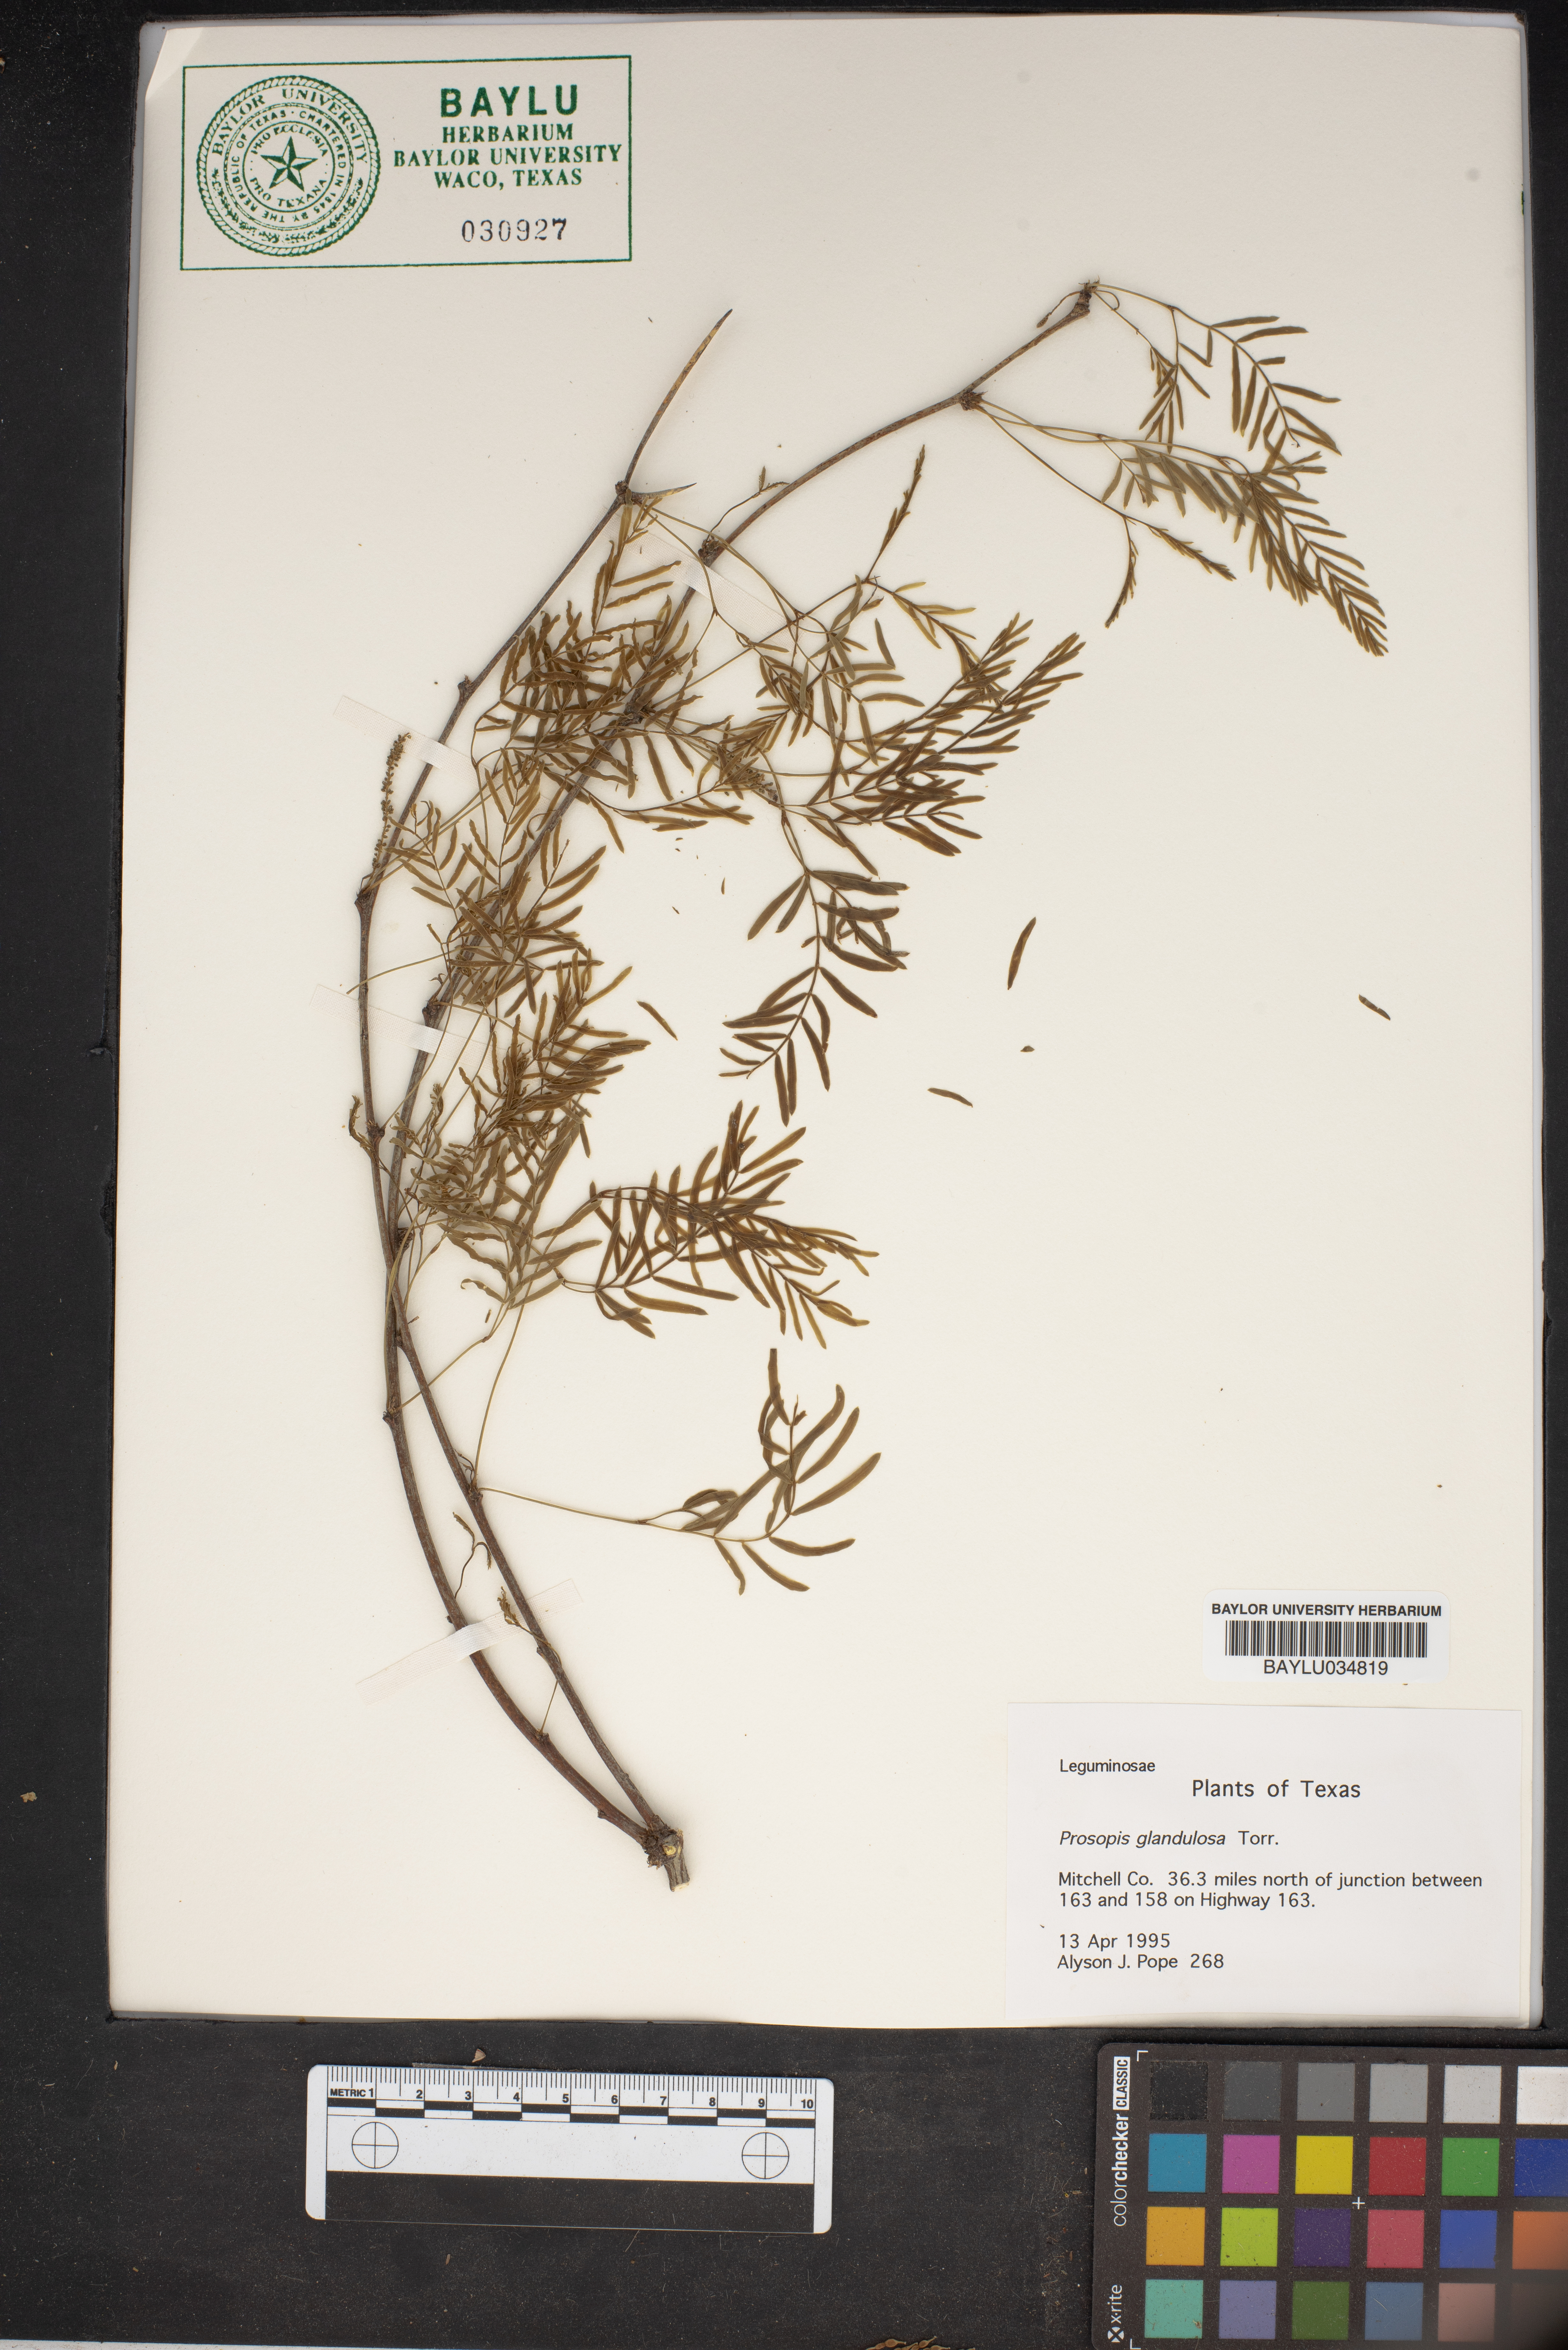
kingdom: Plantae
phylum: Tracheophyta
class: Magnoliopsida
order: Fabales
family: Fabaceae
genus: Prosopis
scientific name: Prosopis glandulosa
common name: Honey mesquite
